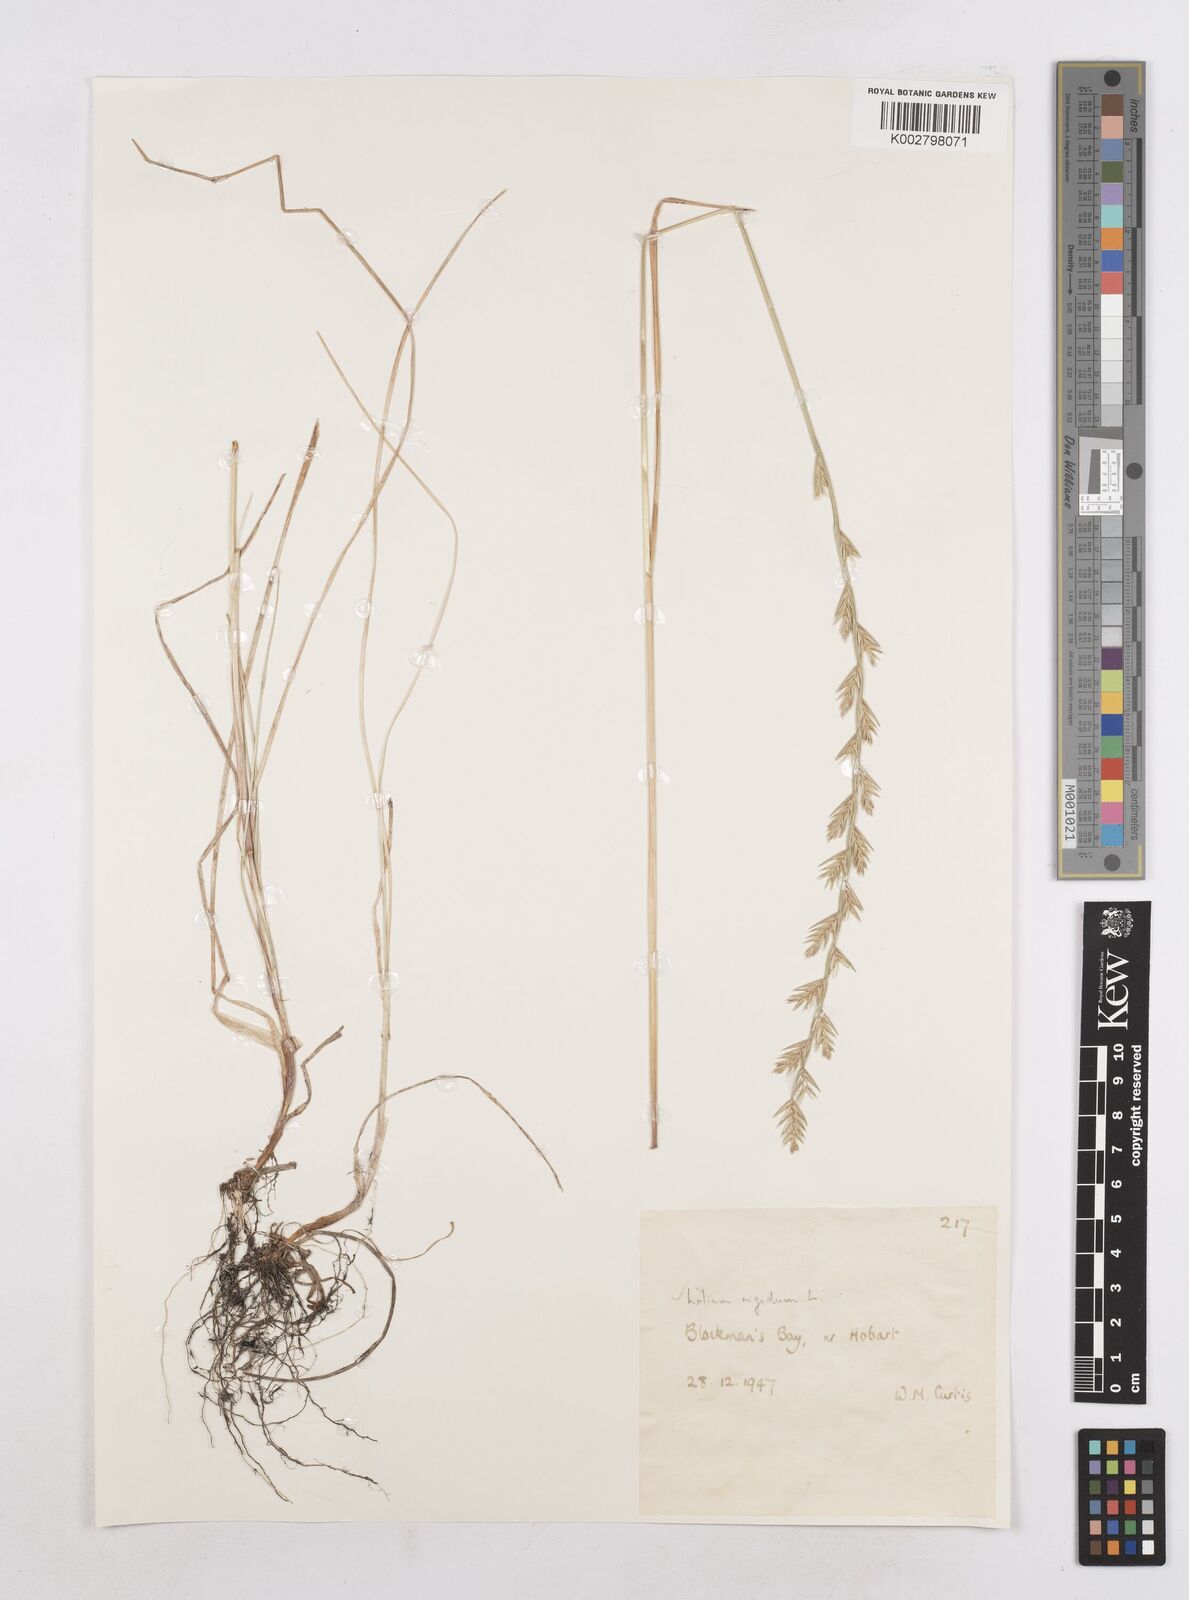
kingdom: Plantae
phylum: Tracheophyta
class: Liliopsida
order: Poales
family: Poaceae
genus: Lolium
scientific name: Lolium
